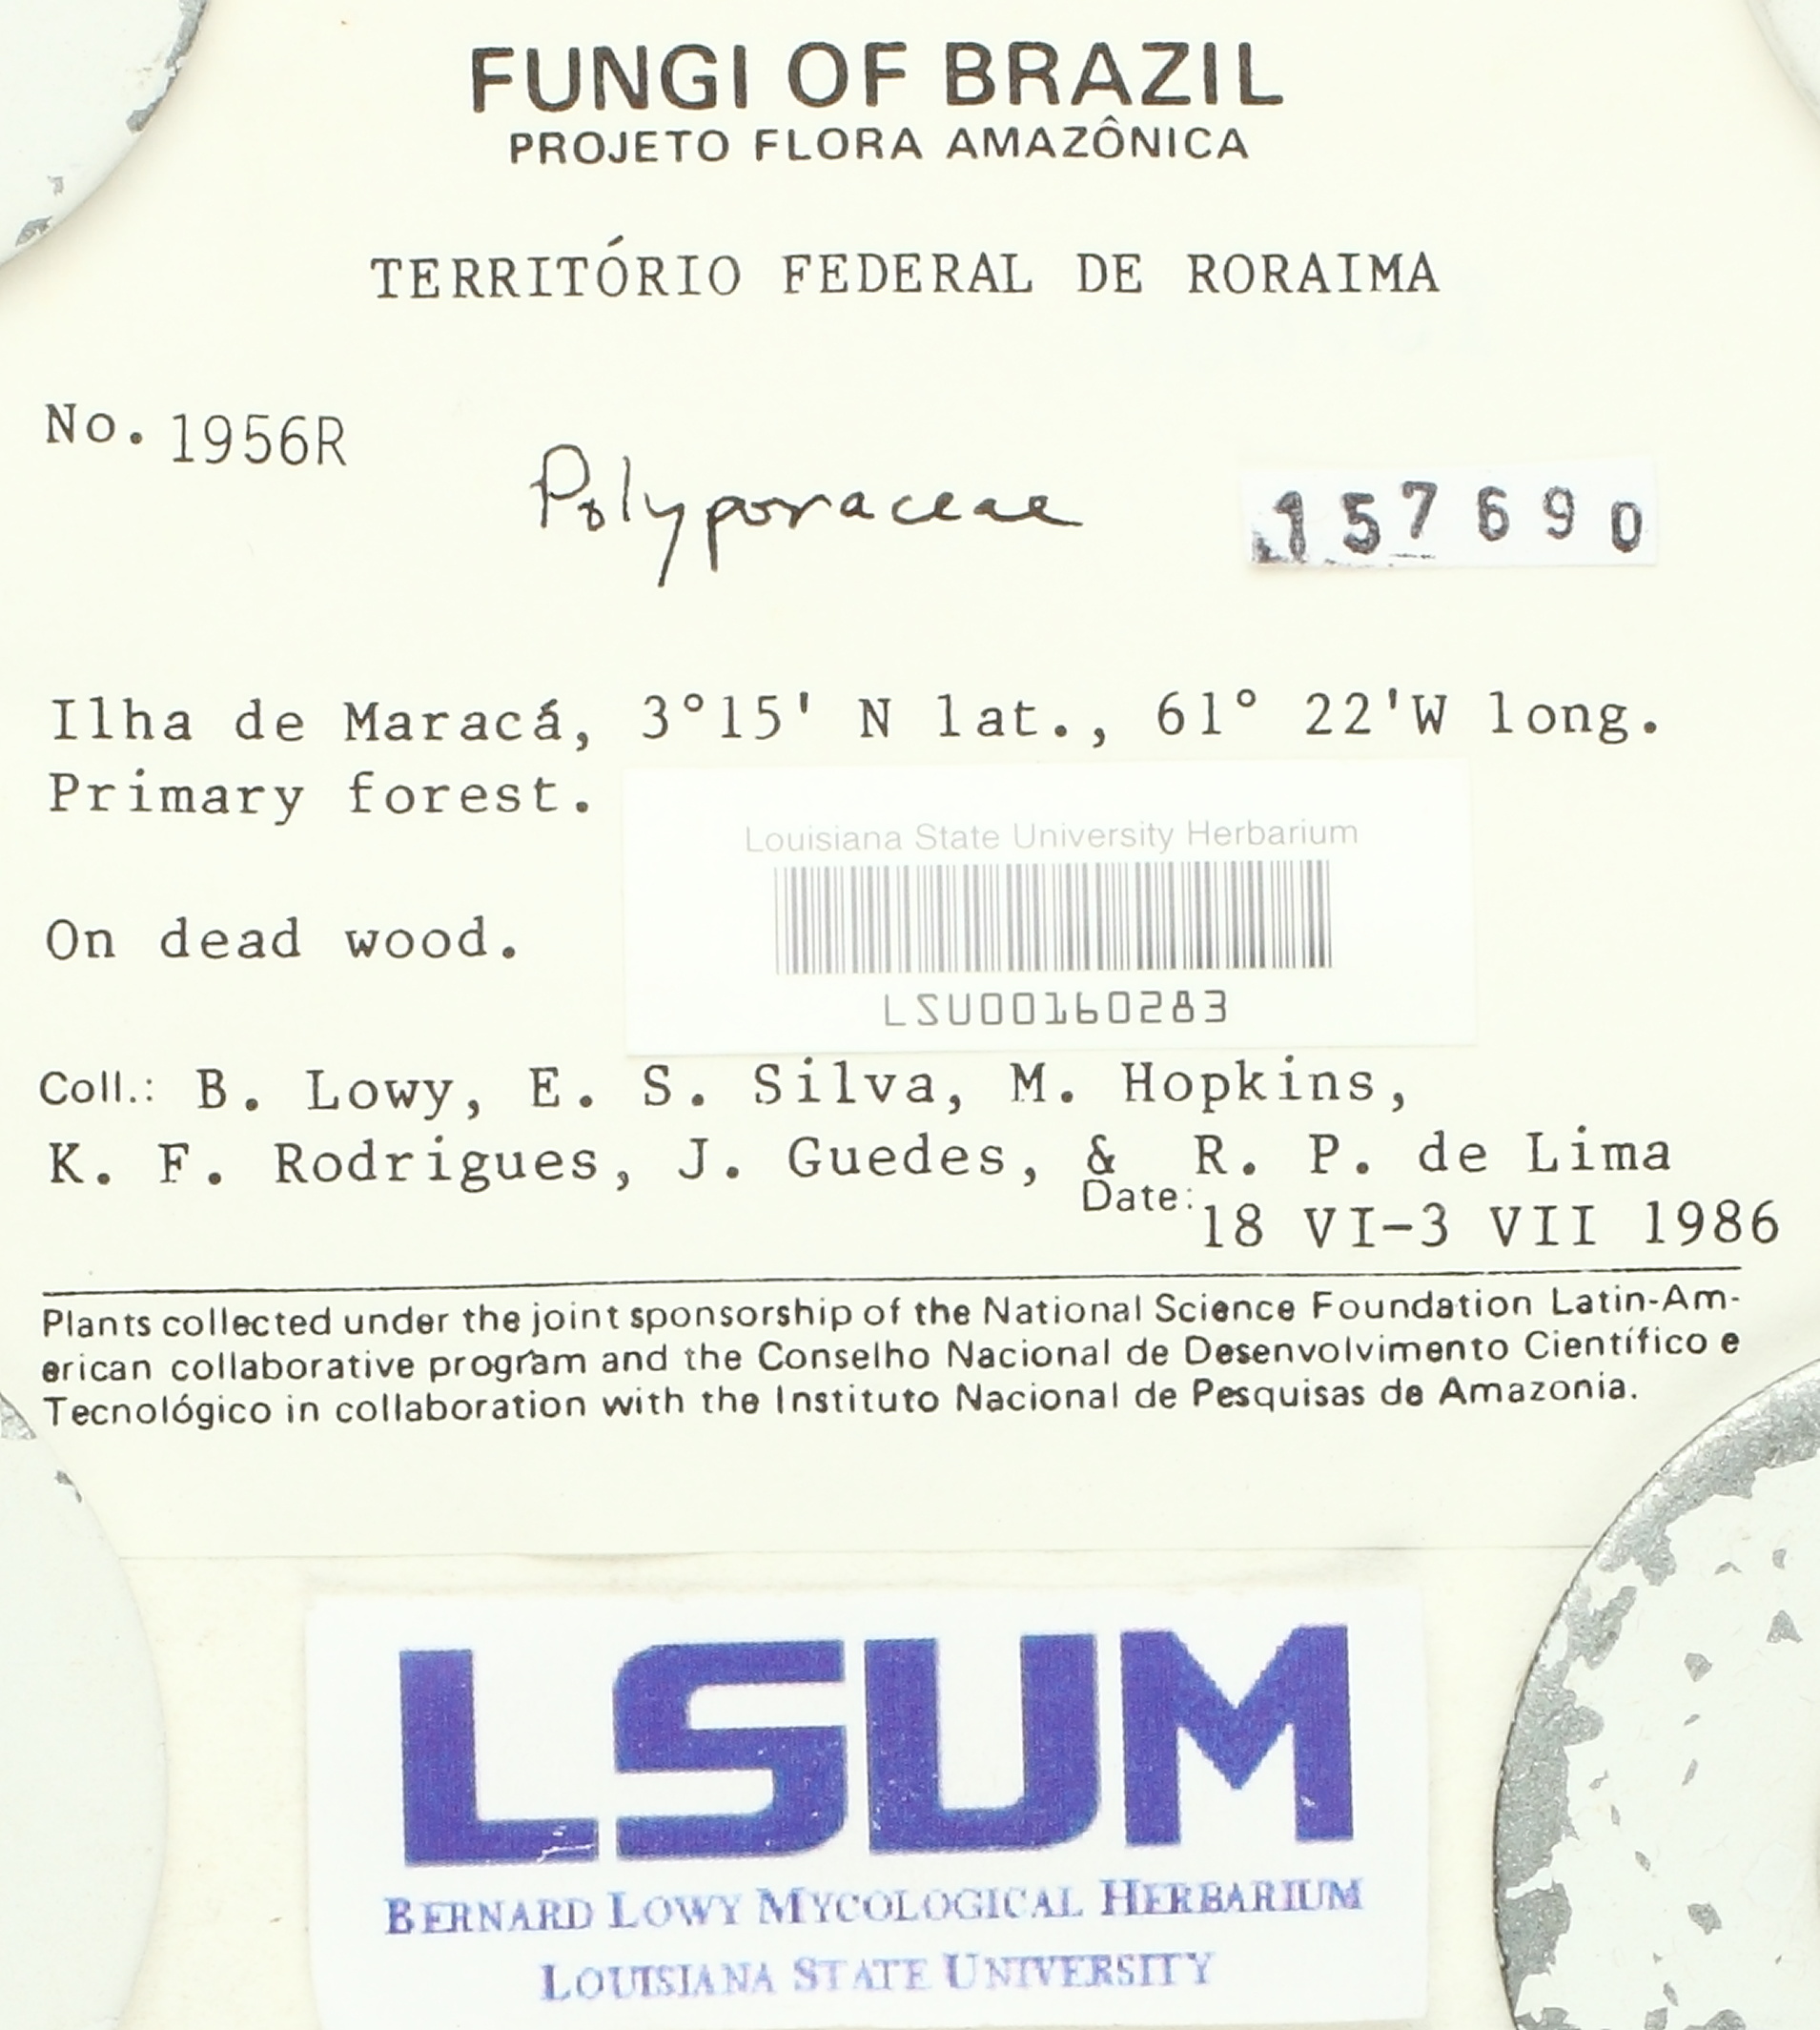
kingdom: Fungi
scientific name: Fungi
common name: Fungi
